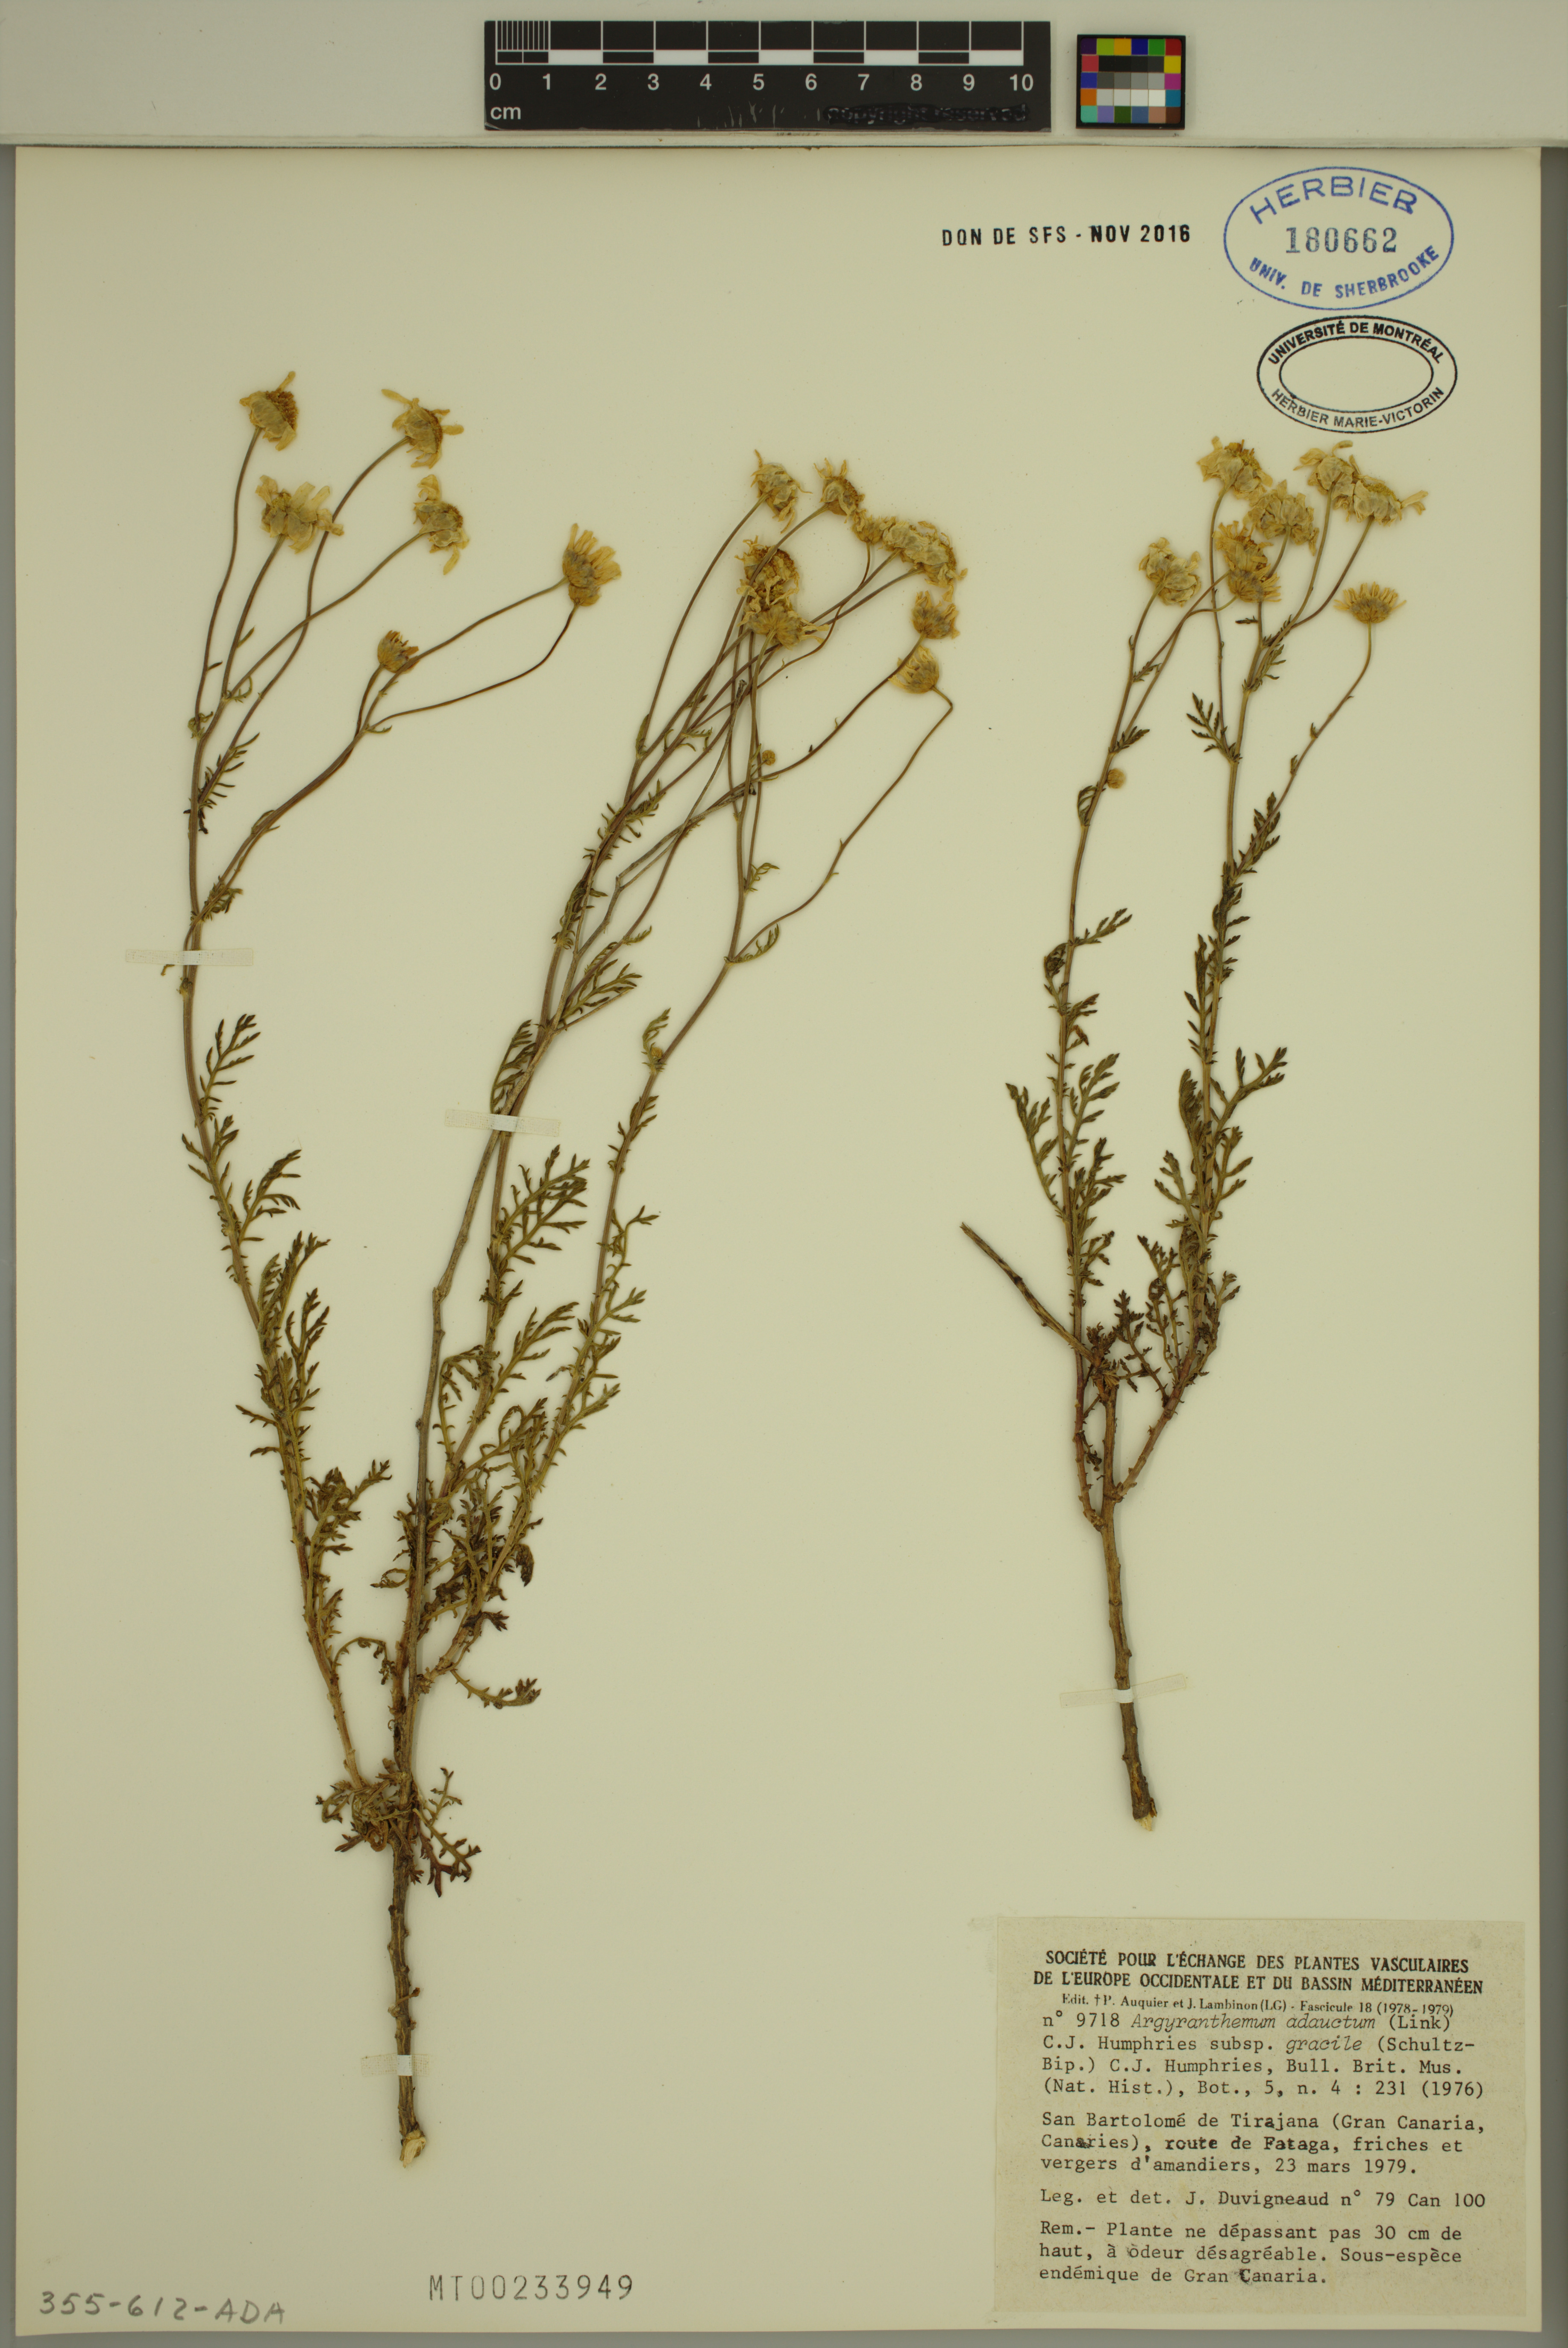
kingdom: Plantae
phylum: Tracheophyta
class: Magnoliopsida
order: Asterales
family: Asteraceae
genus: Argyranthemum
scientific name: Argyranthemum adauctum
